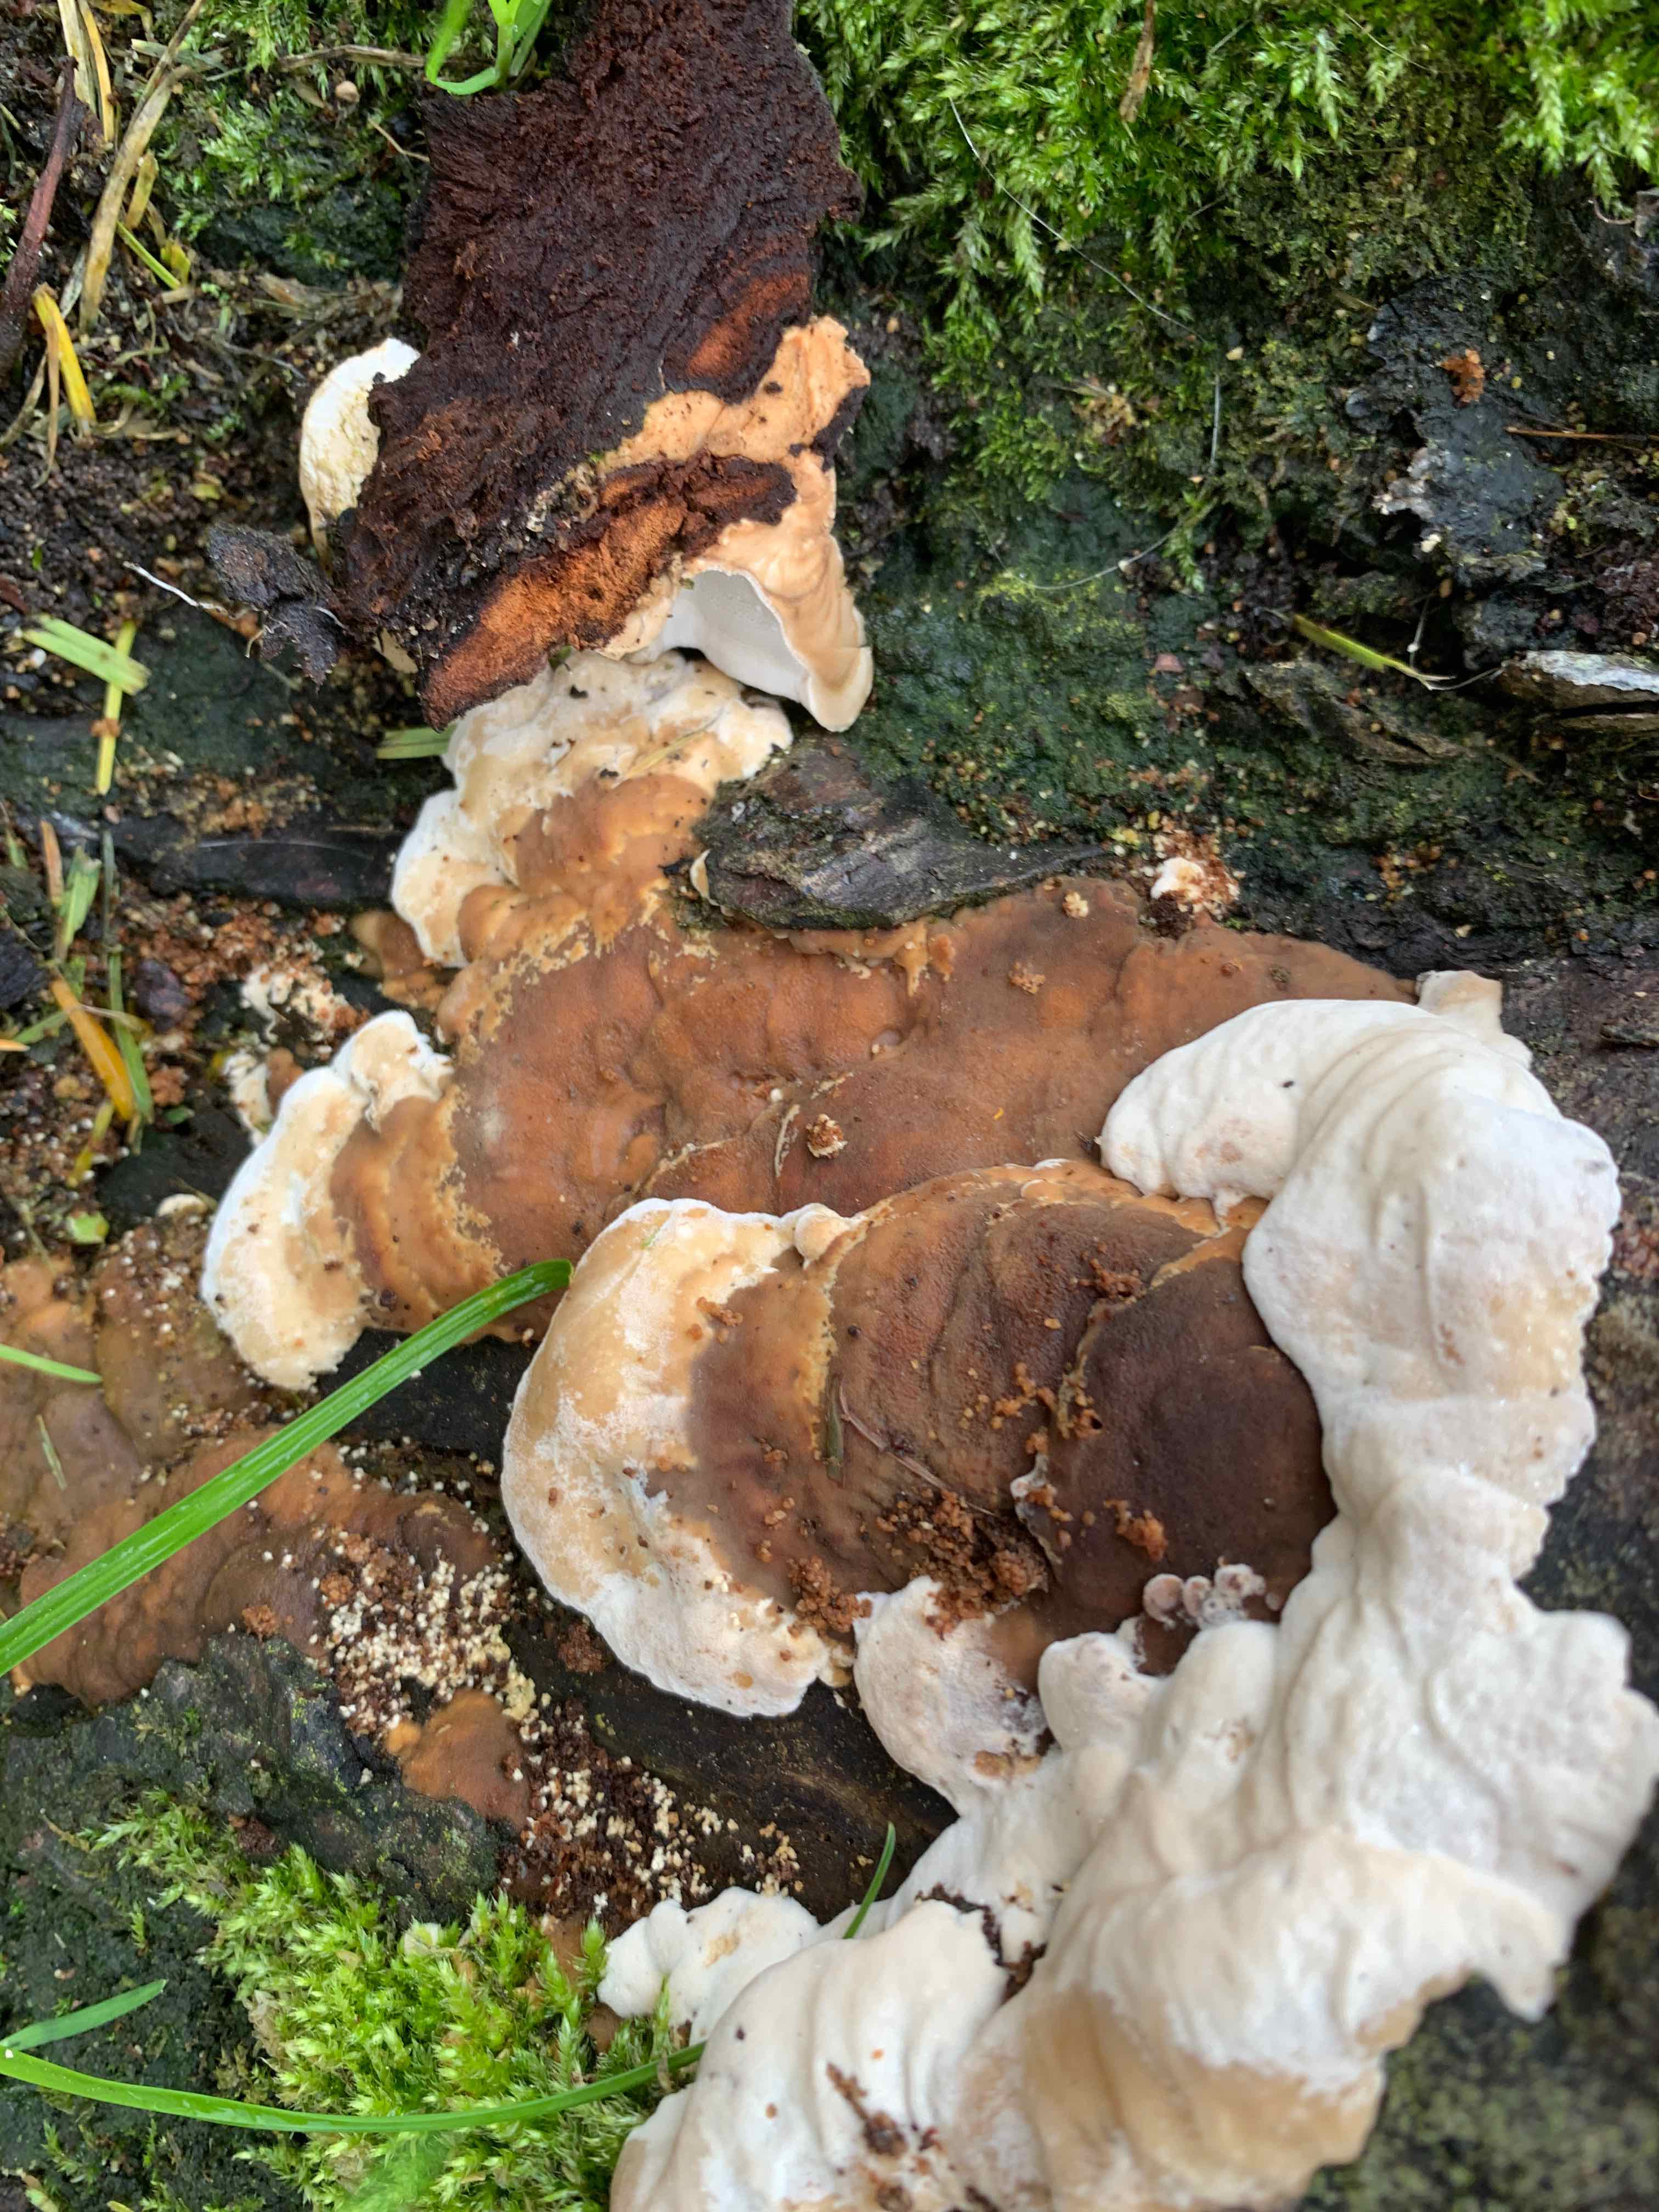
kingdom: Fungi
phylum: Basidiomycota
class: Agaricomycetes
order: Polyporales
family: Phanerochaetaceae
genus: Bjerkandera
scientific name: Bjerkandera fumosa
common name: grågul sodporesvamp
